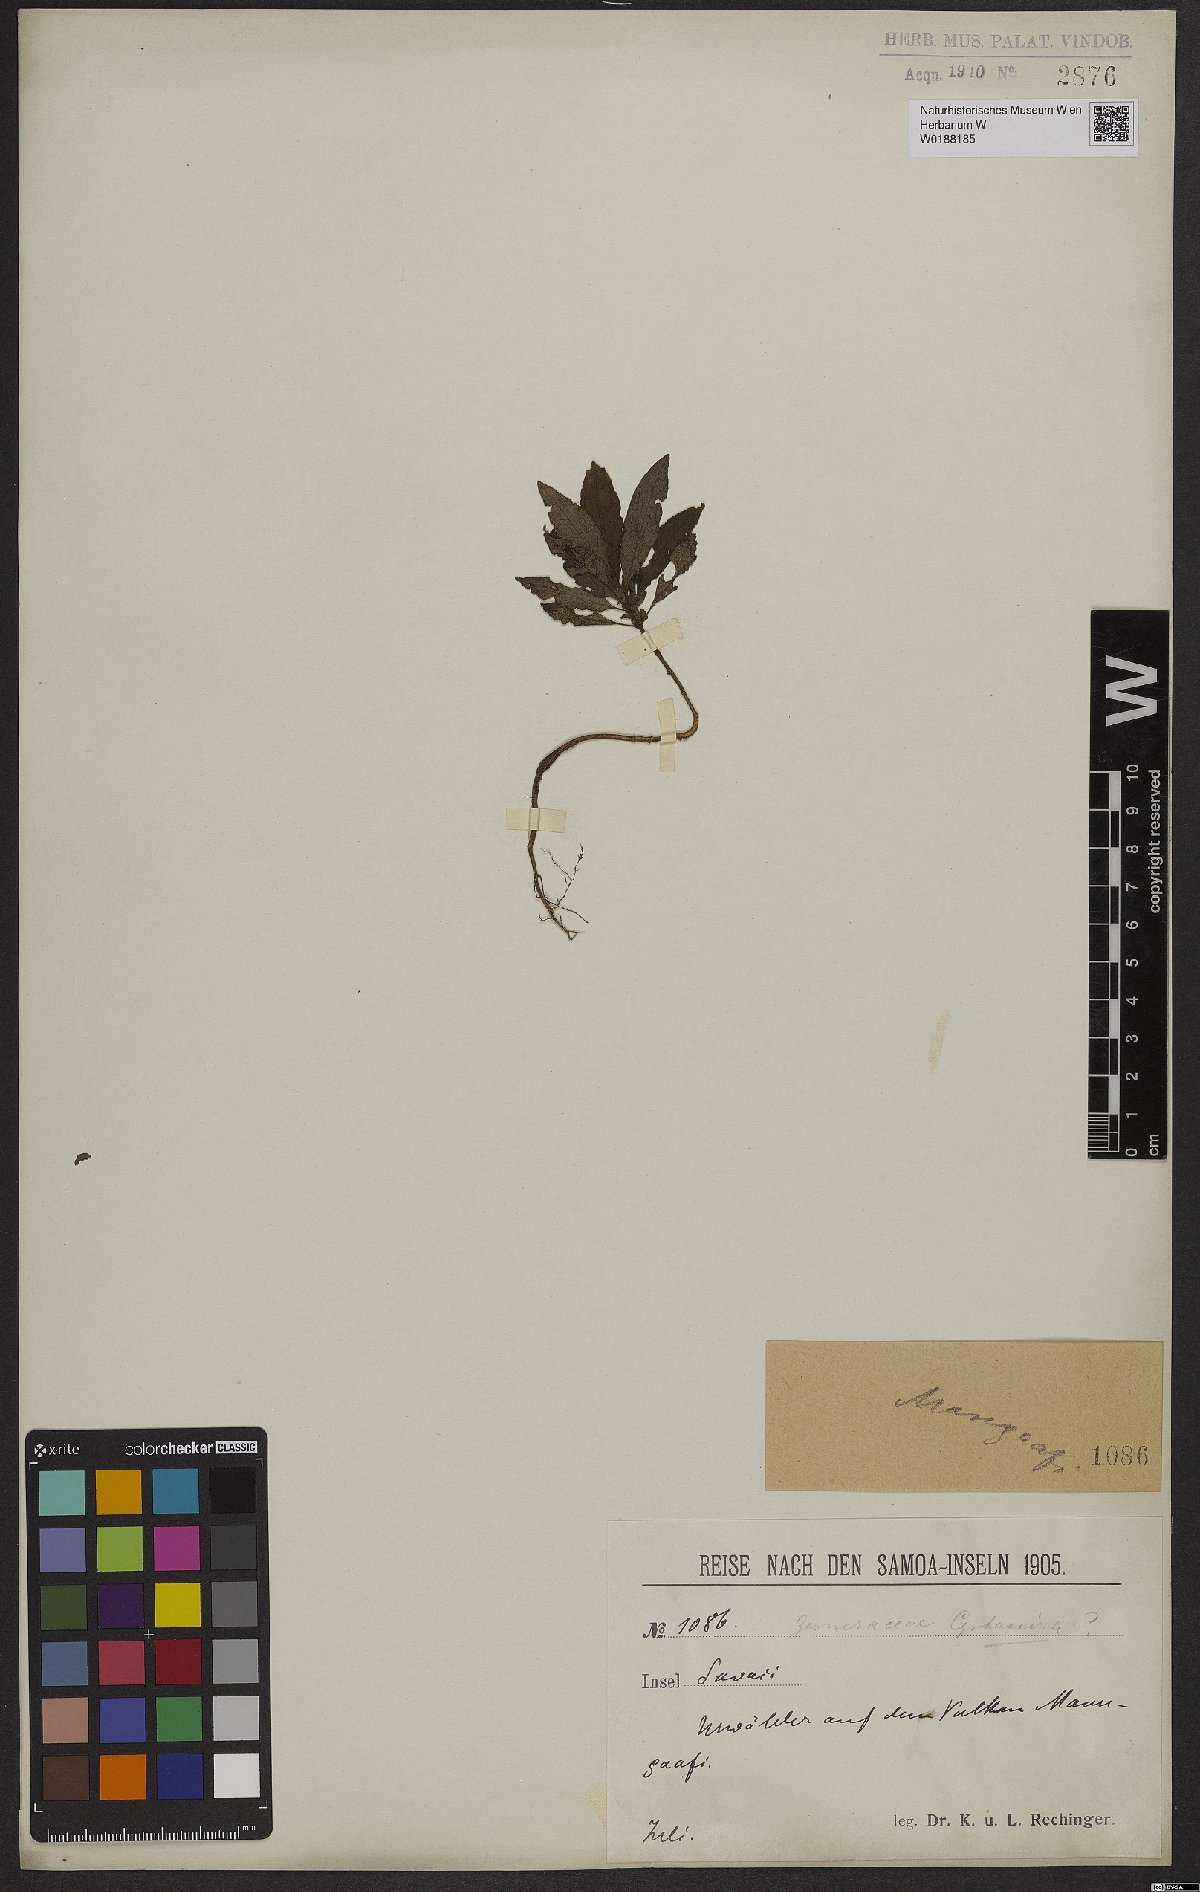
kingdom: Plantae
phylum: Tracheophyta
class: Magnoliopsida
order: Lamiales
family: Gesneriaceae
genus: Cyrtandra
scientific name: Cyrtandra
